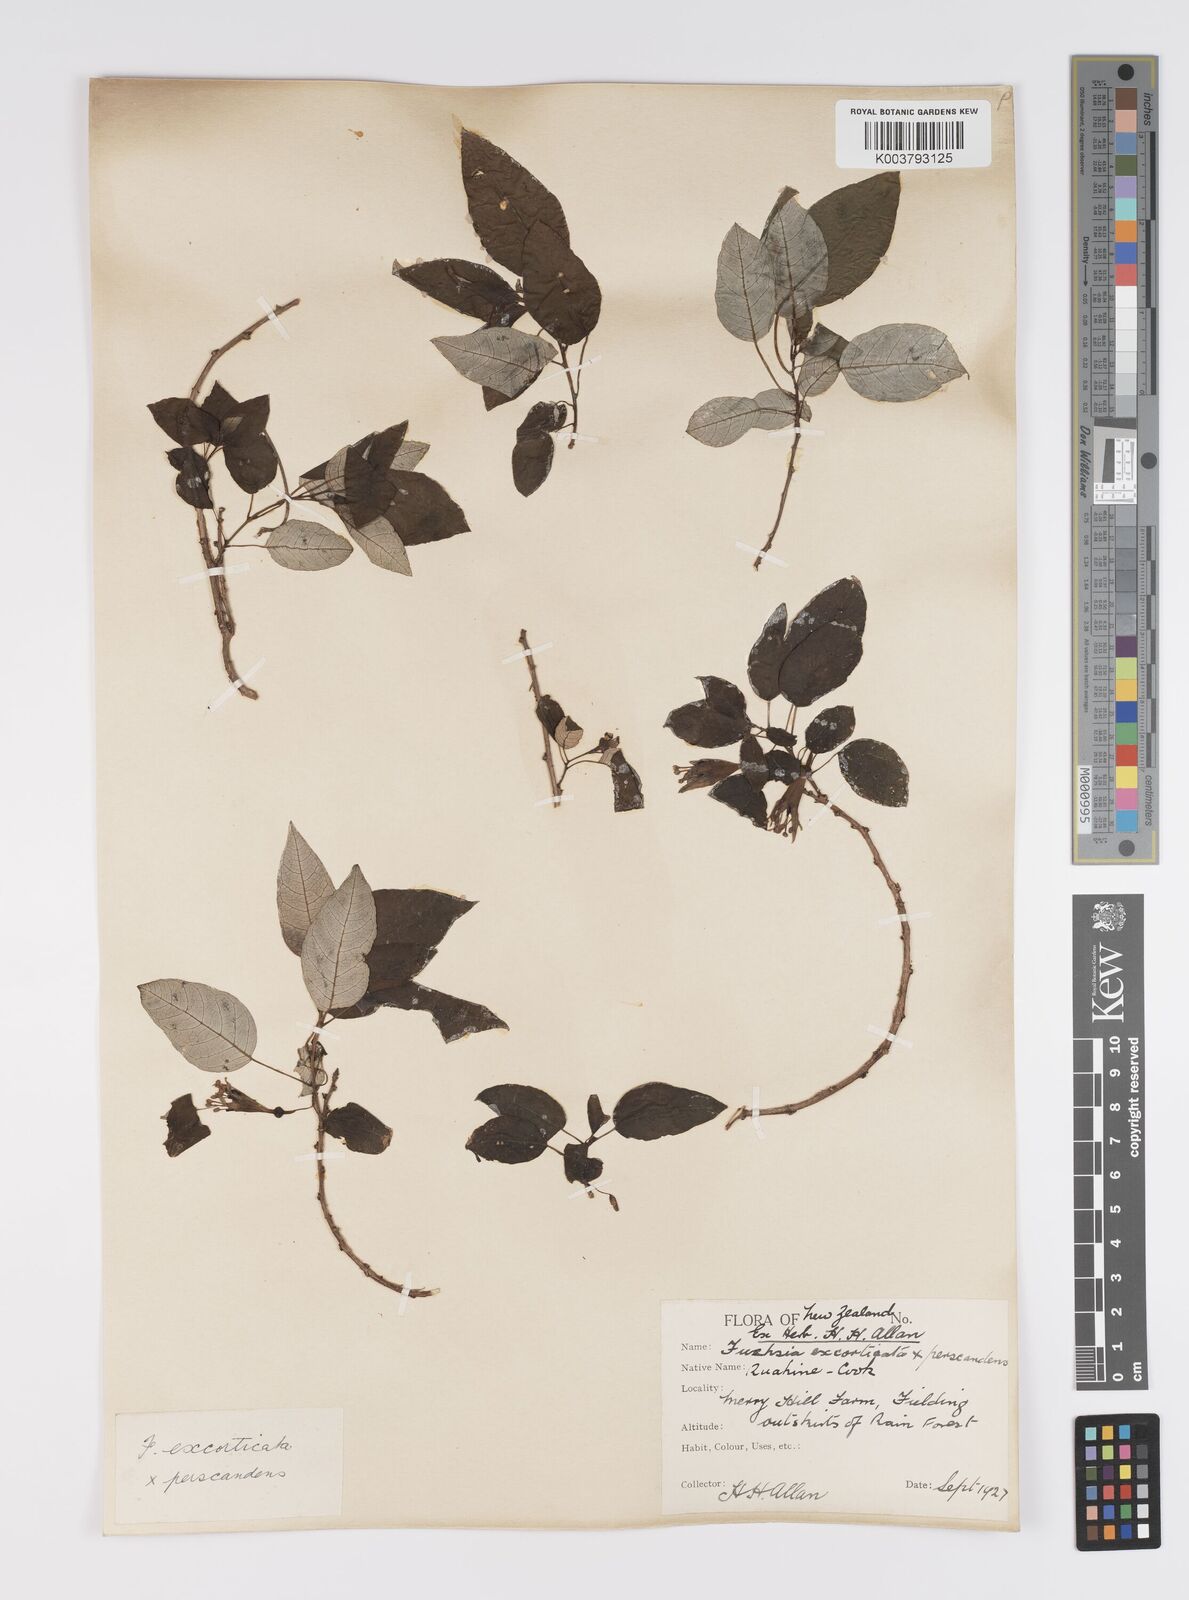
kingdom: Plantae
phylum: Tracheophyta
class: Magnoliopsida
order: Myrtales
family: Onagraceae
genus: Fuchsia
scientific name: Fuchsia excorticata
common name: Tree fuchsia
